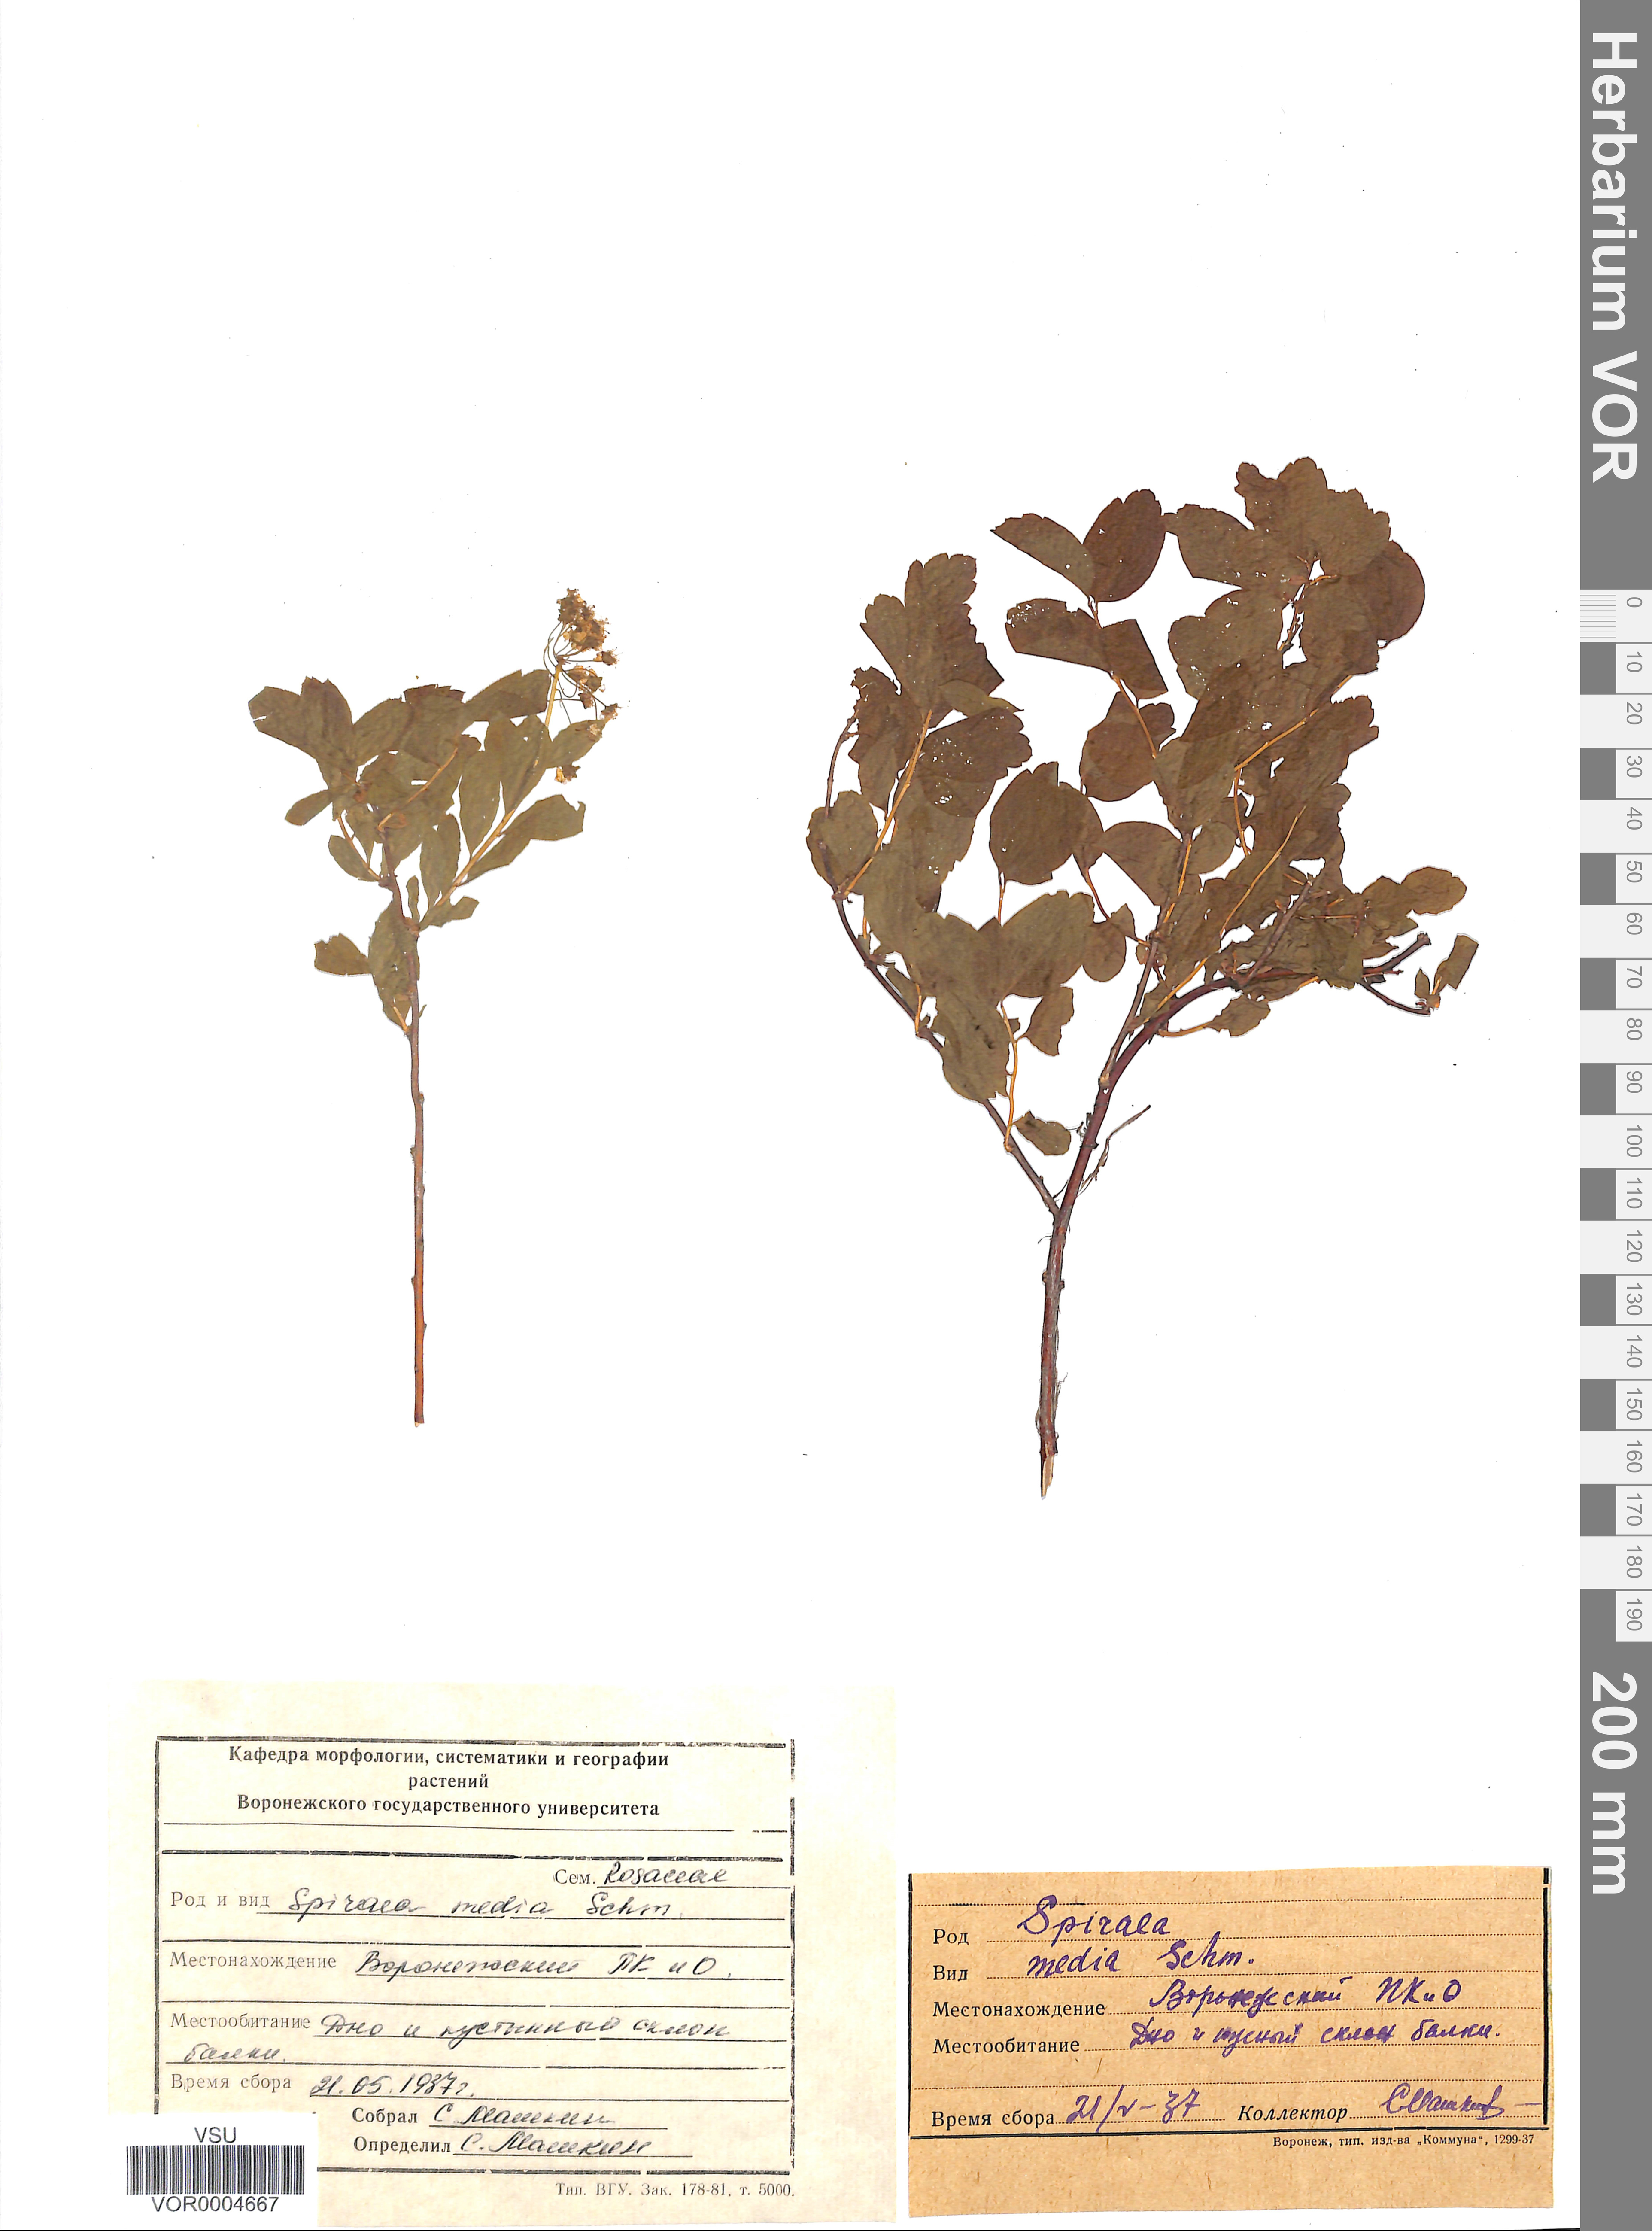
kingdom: Plantae
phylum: Tracheophyta
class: Magnoliopsida
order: Rosales
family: Rosaceae
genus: Spiraea
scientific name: Spiraea media
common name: Russian spiraea
